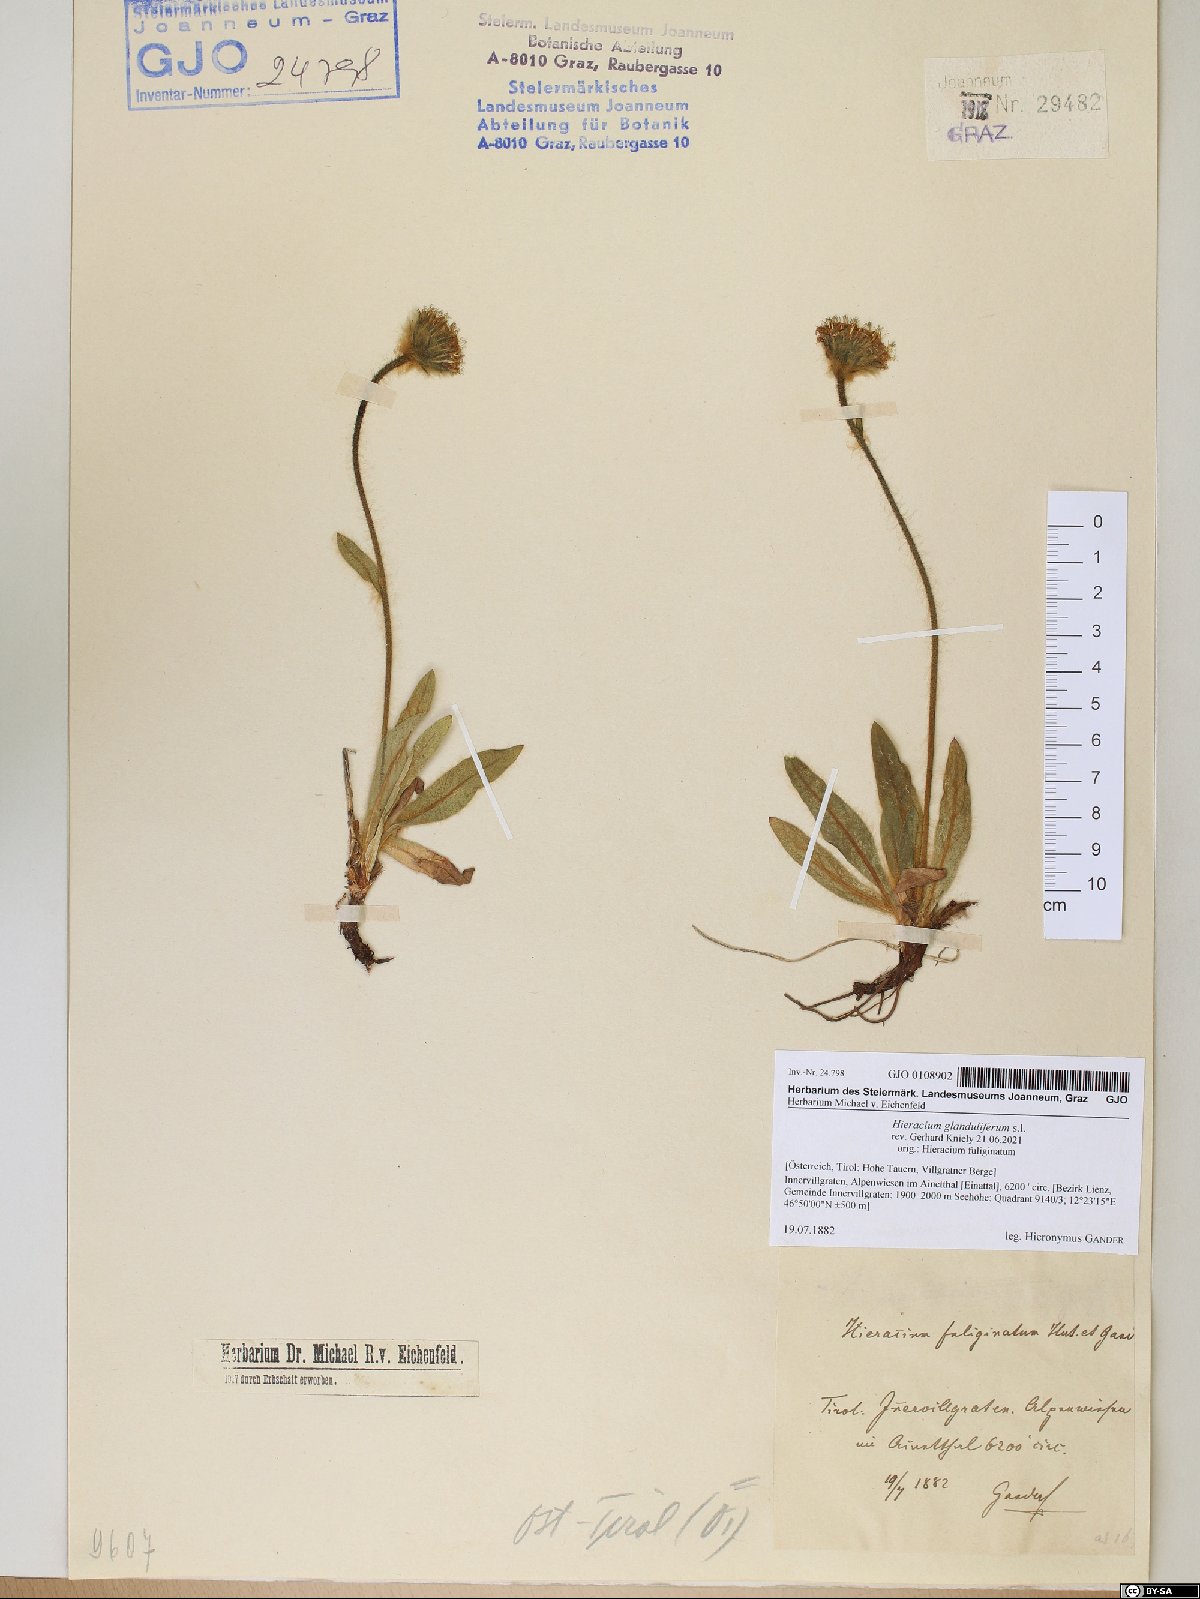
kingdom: Plantae
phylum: Tracheophyta
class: Magnoliopsida
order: Asterales
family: Asteraceae
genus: Hieracium
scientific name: Hieracium piliferum
